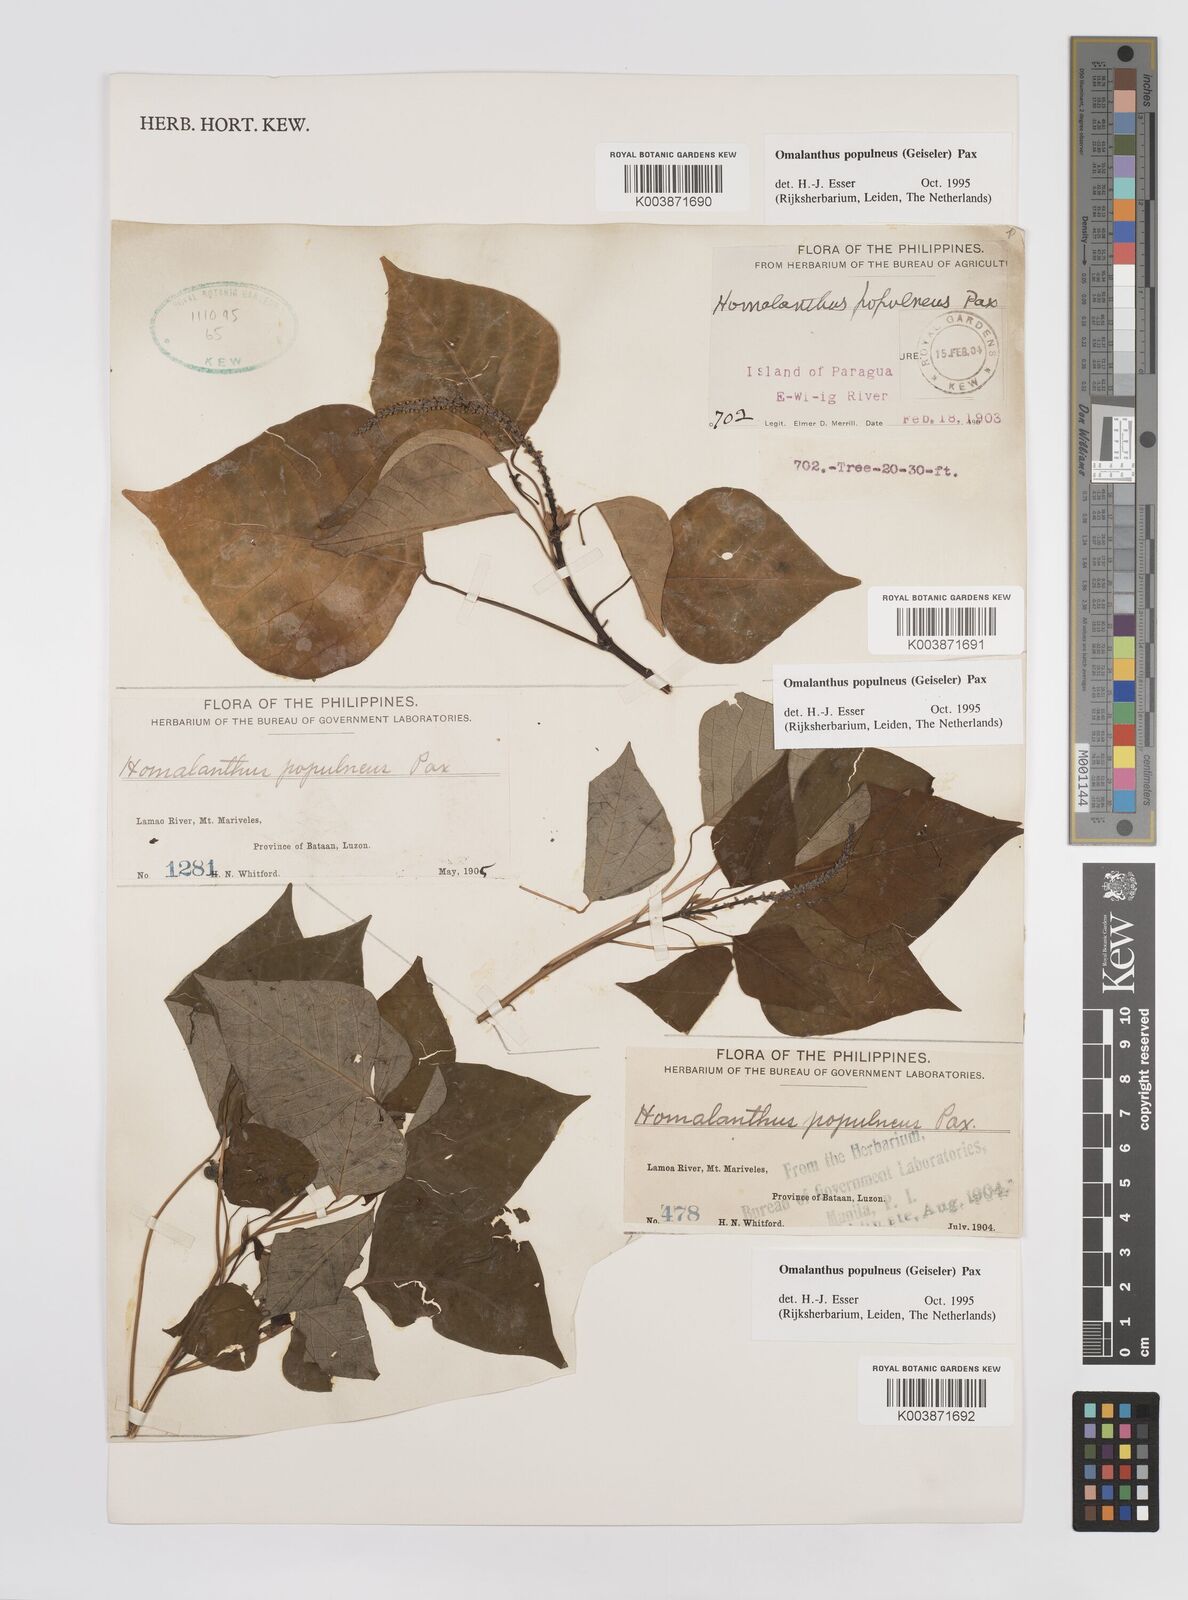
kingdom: Plantae
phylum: Tracheophyta
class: Magnoliopsida
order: Malpighiales
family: Euphorbiaceae
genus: Homalanthus
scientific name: Homalanthus populneus
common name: Spurge
